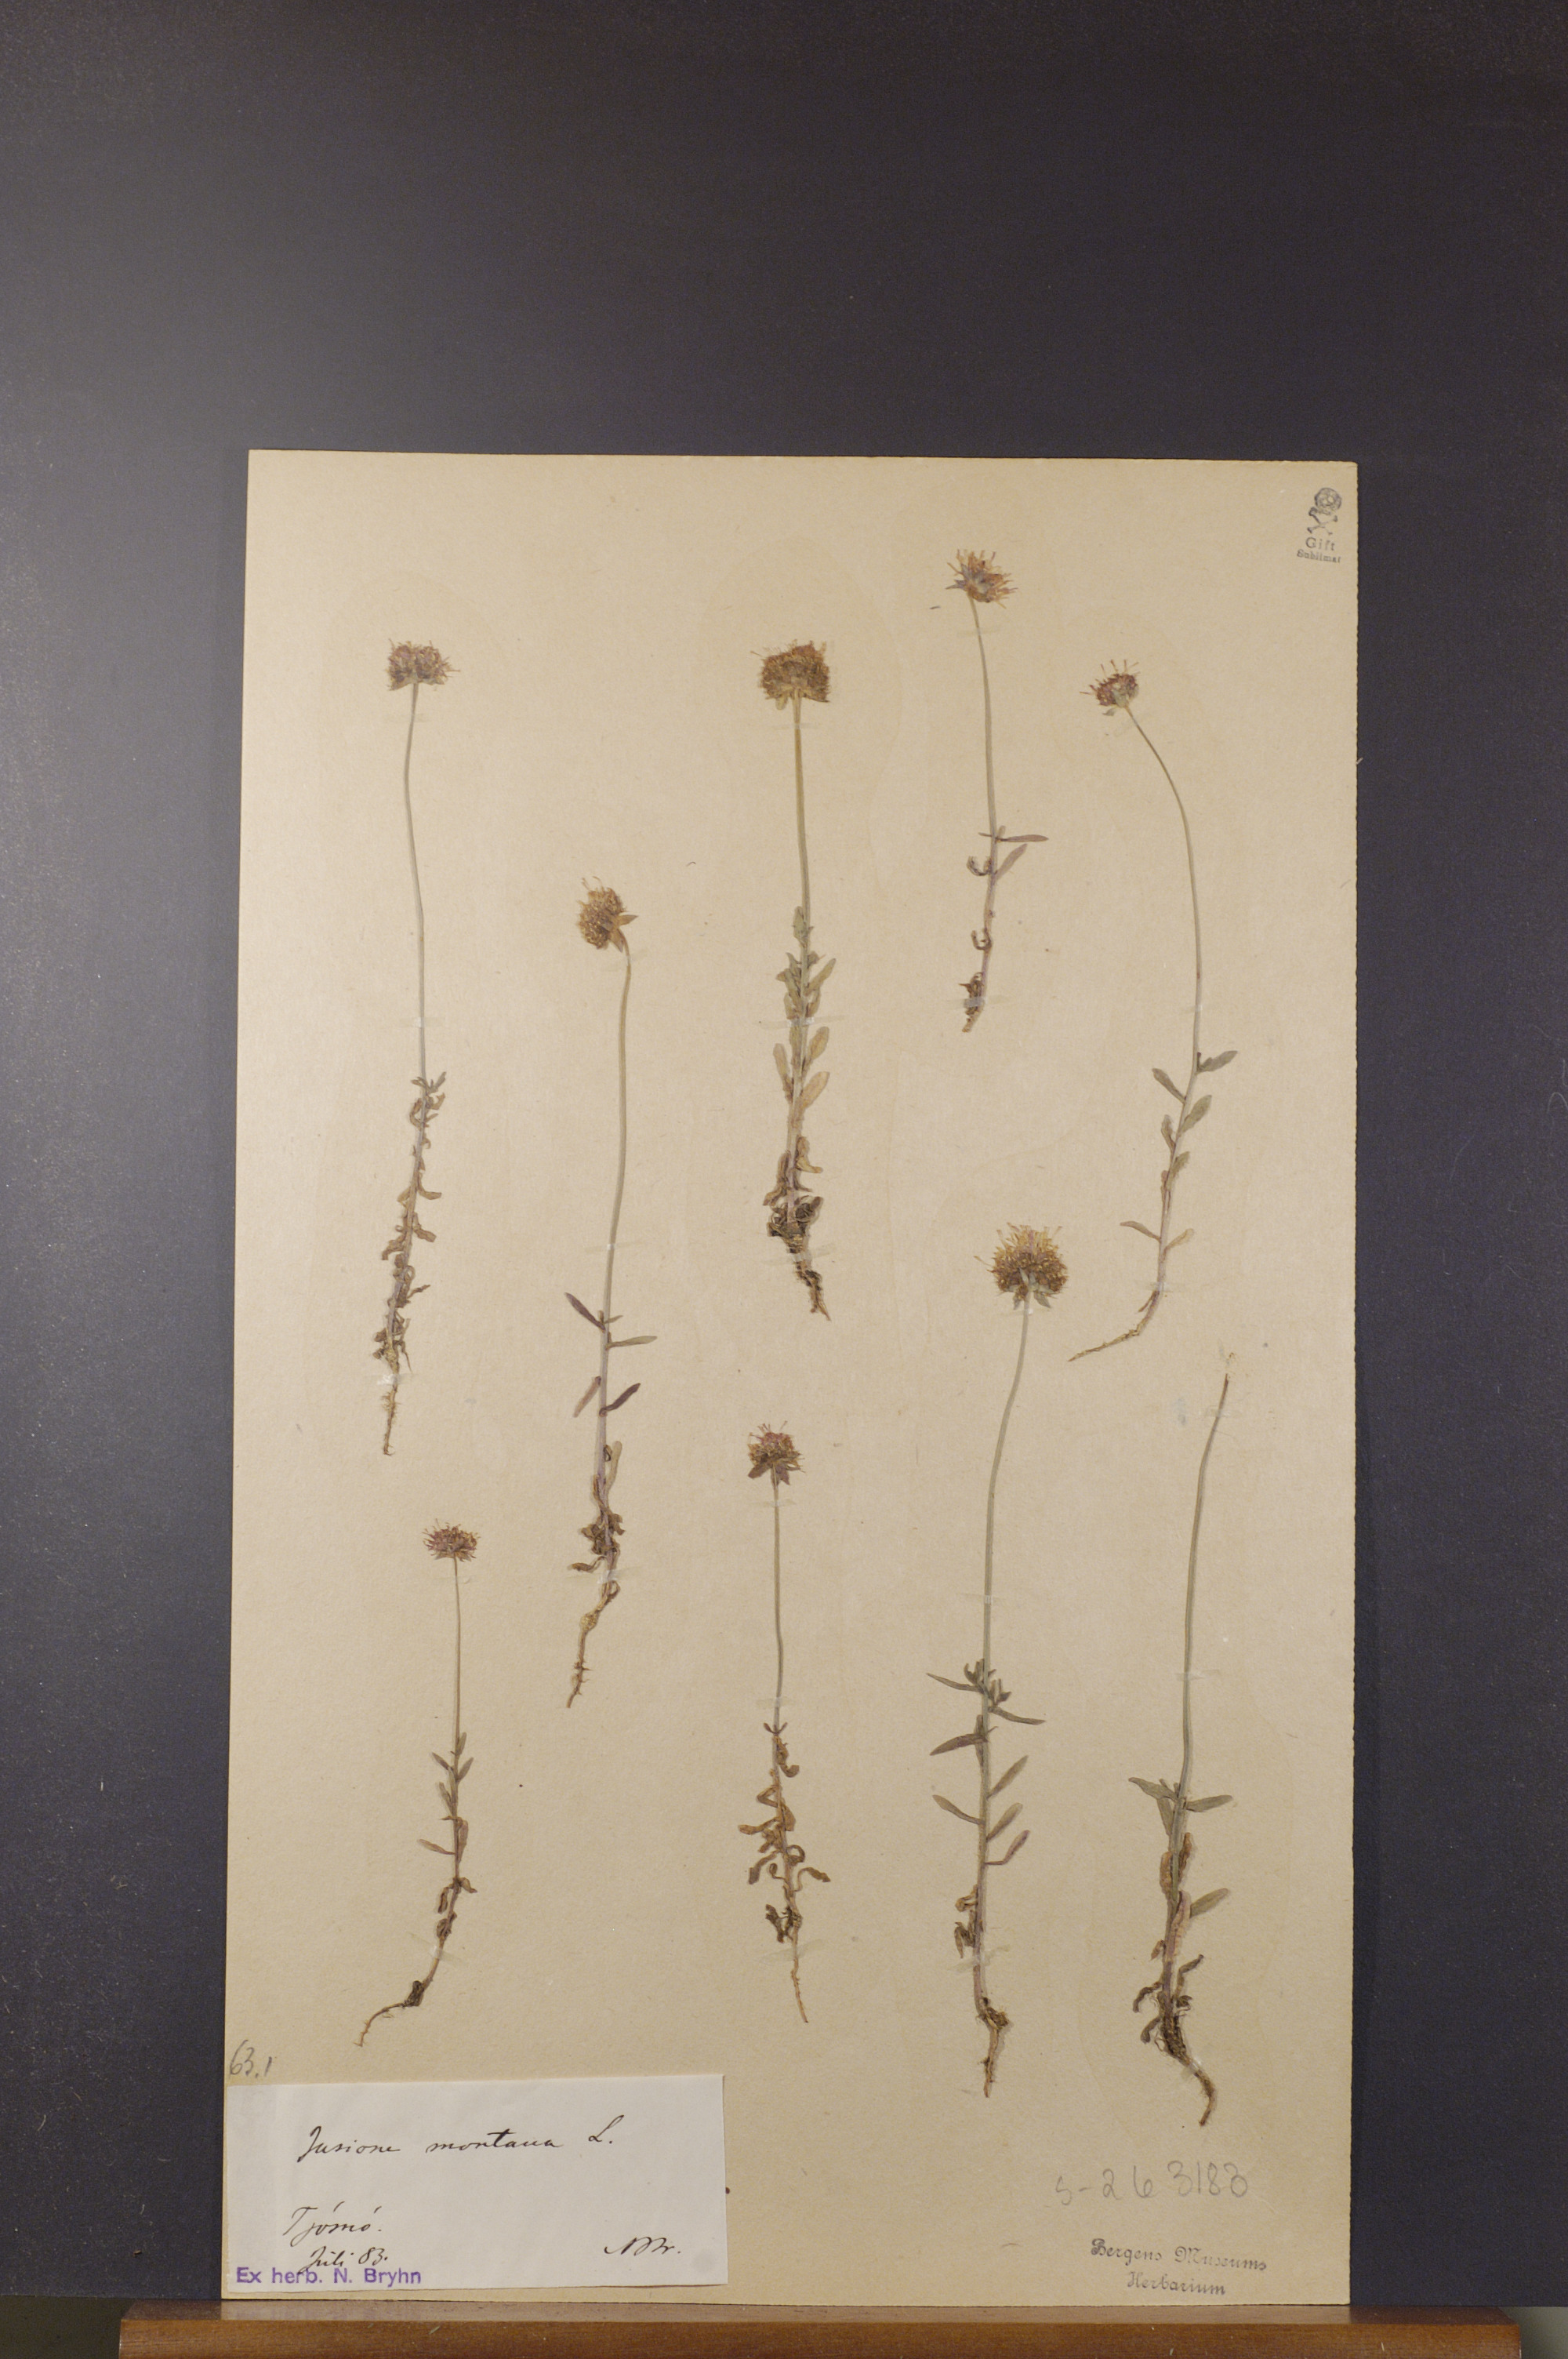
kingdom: Plantae
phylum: Tracheophyta
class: Magnoliopsida
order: Asterales
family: Campanulaceae
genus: Jasione
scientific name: Jasione montana
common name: Sheep's-bit
